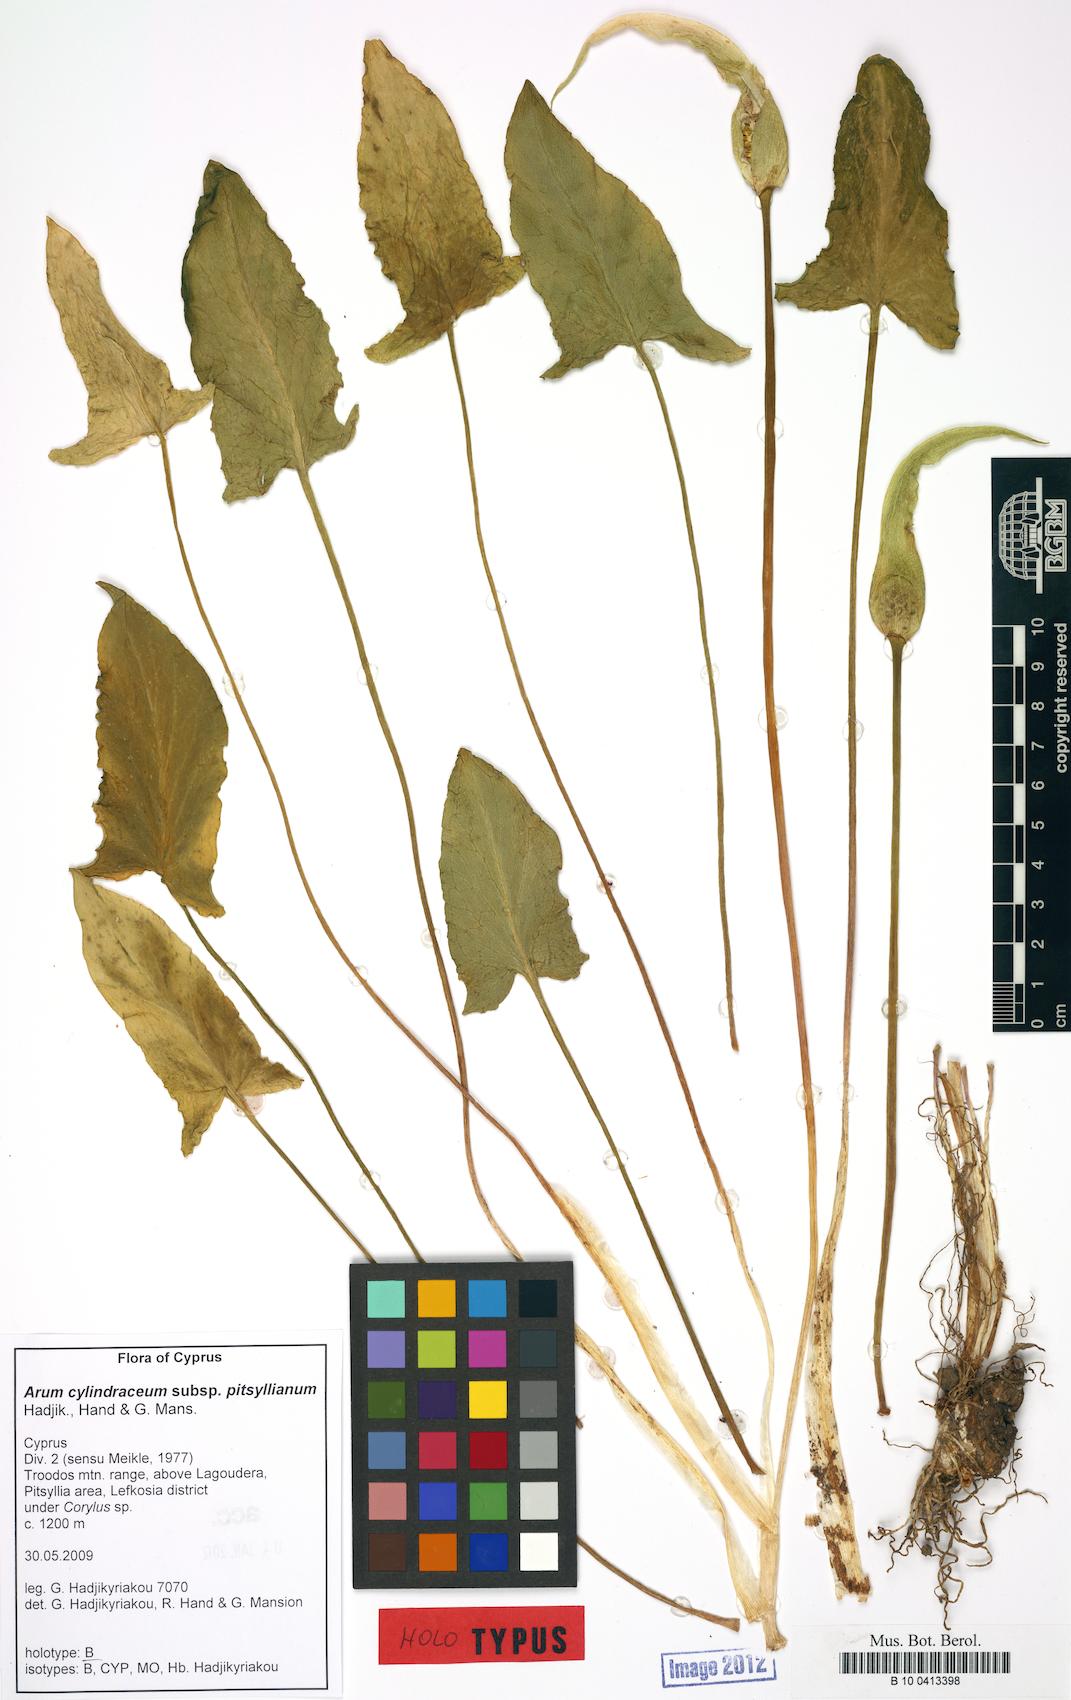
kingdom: Plantae
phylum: Tracheophyta
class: Liliopsida
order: Alismatales
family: Araceae
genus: Arum
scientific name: Arum cylindraceum
